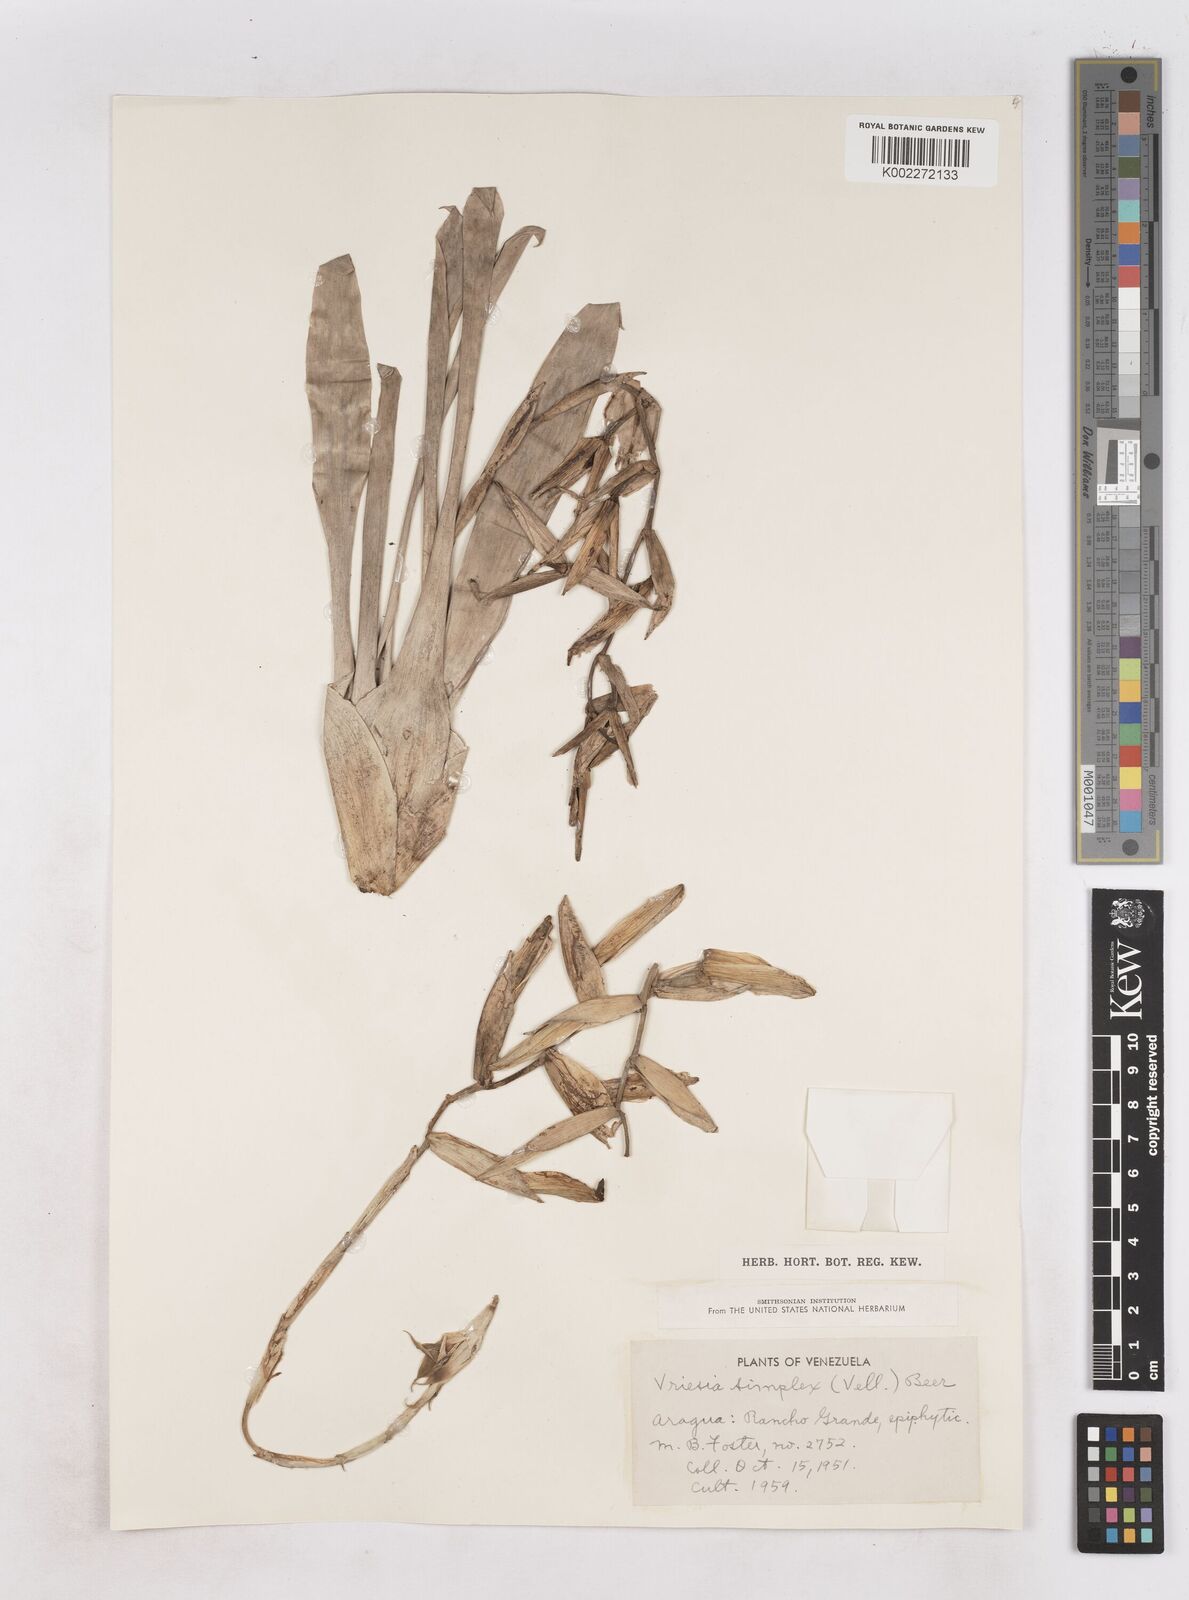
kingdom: Plantae
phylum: Tracheophyta
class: Liliopsida
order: Poales
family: Bromeliaceae
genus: Vriesea
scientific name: Vriesea simplex
